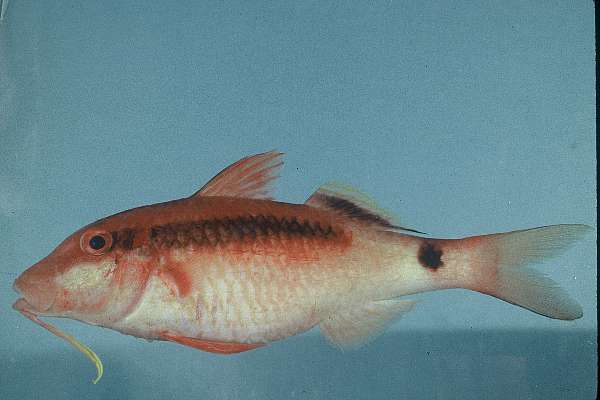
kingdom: Animalia
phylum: Chordata
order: Perciformes
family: Mullidae
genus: Parupeneus
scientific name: Parupeneus macronemus
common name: Long-barbel goatfish
